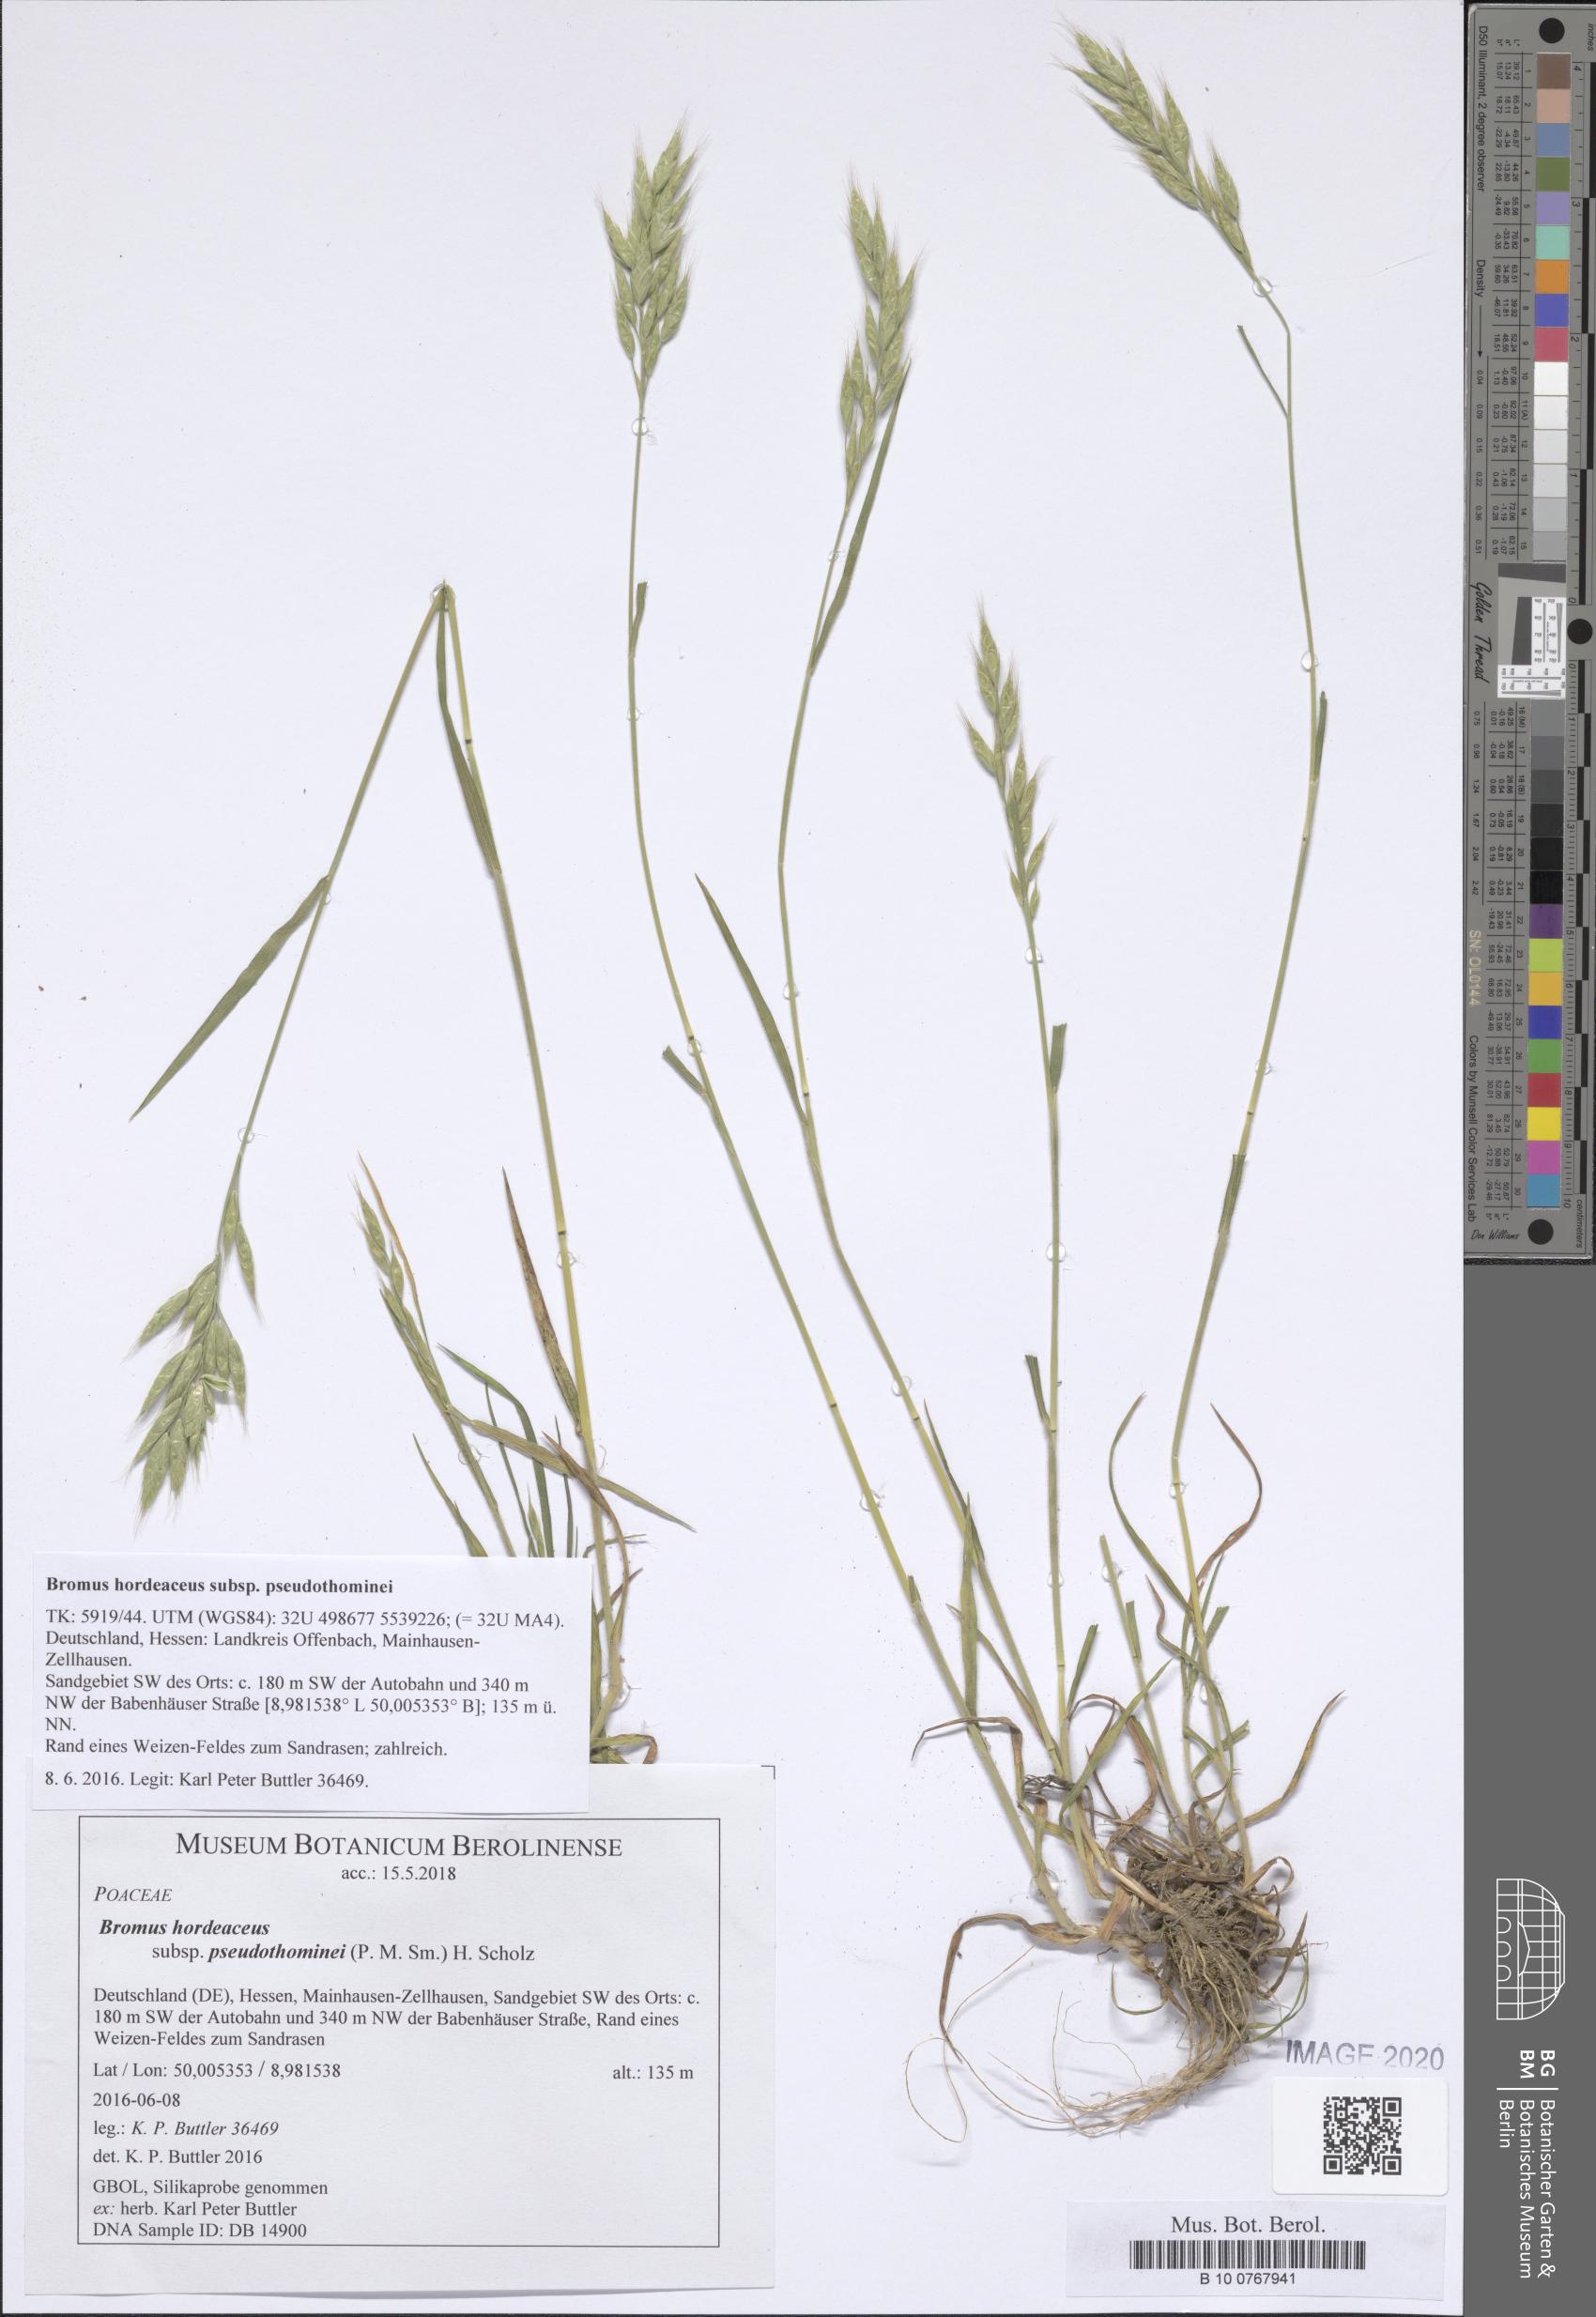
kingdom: Plantae
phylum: Tracheophyta
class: Liliopsida
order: Poales
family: Poaceae
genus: Bromus
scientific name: Bromus ferronii
